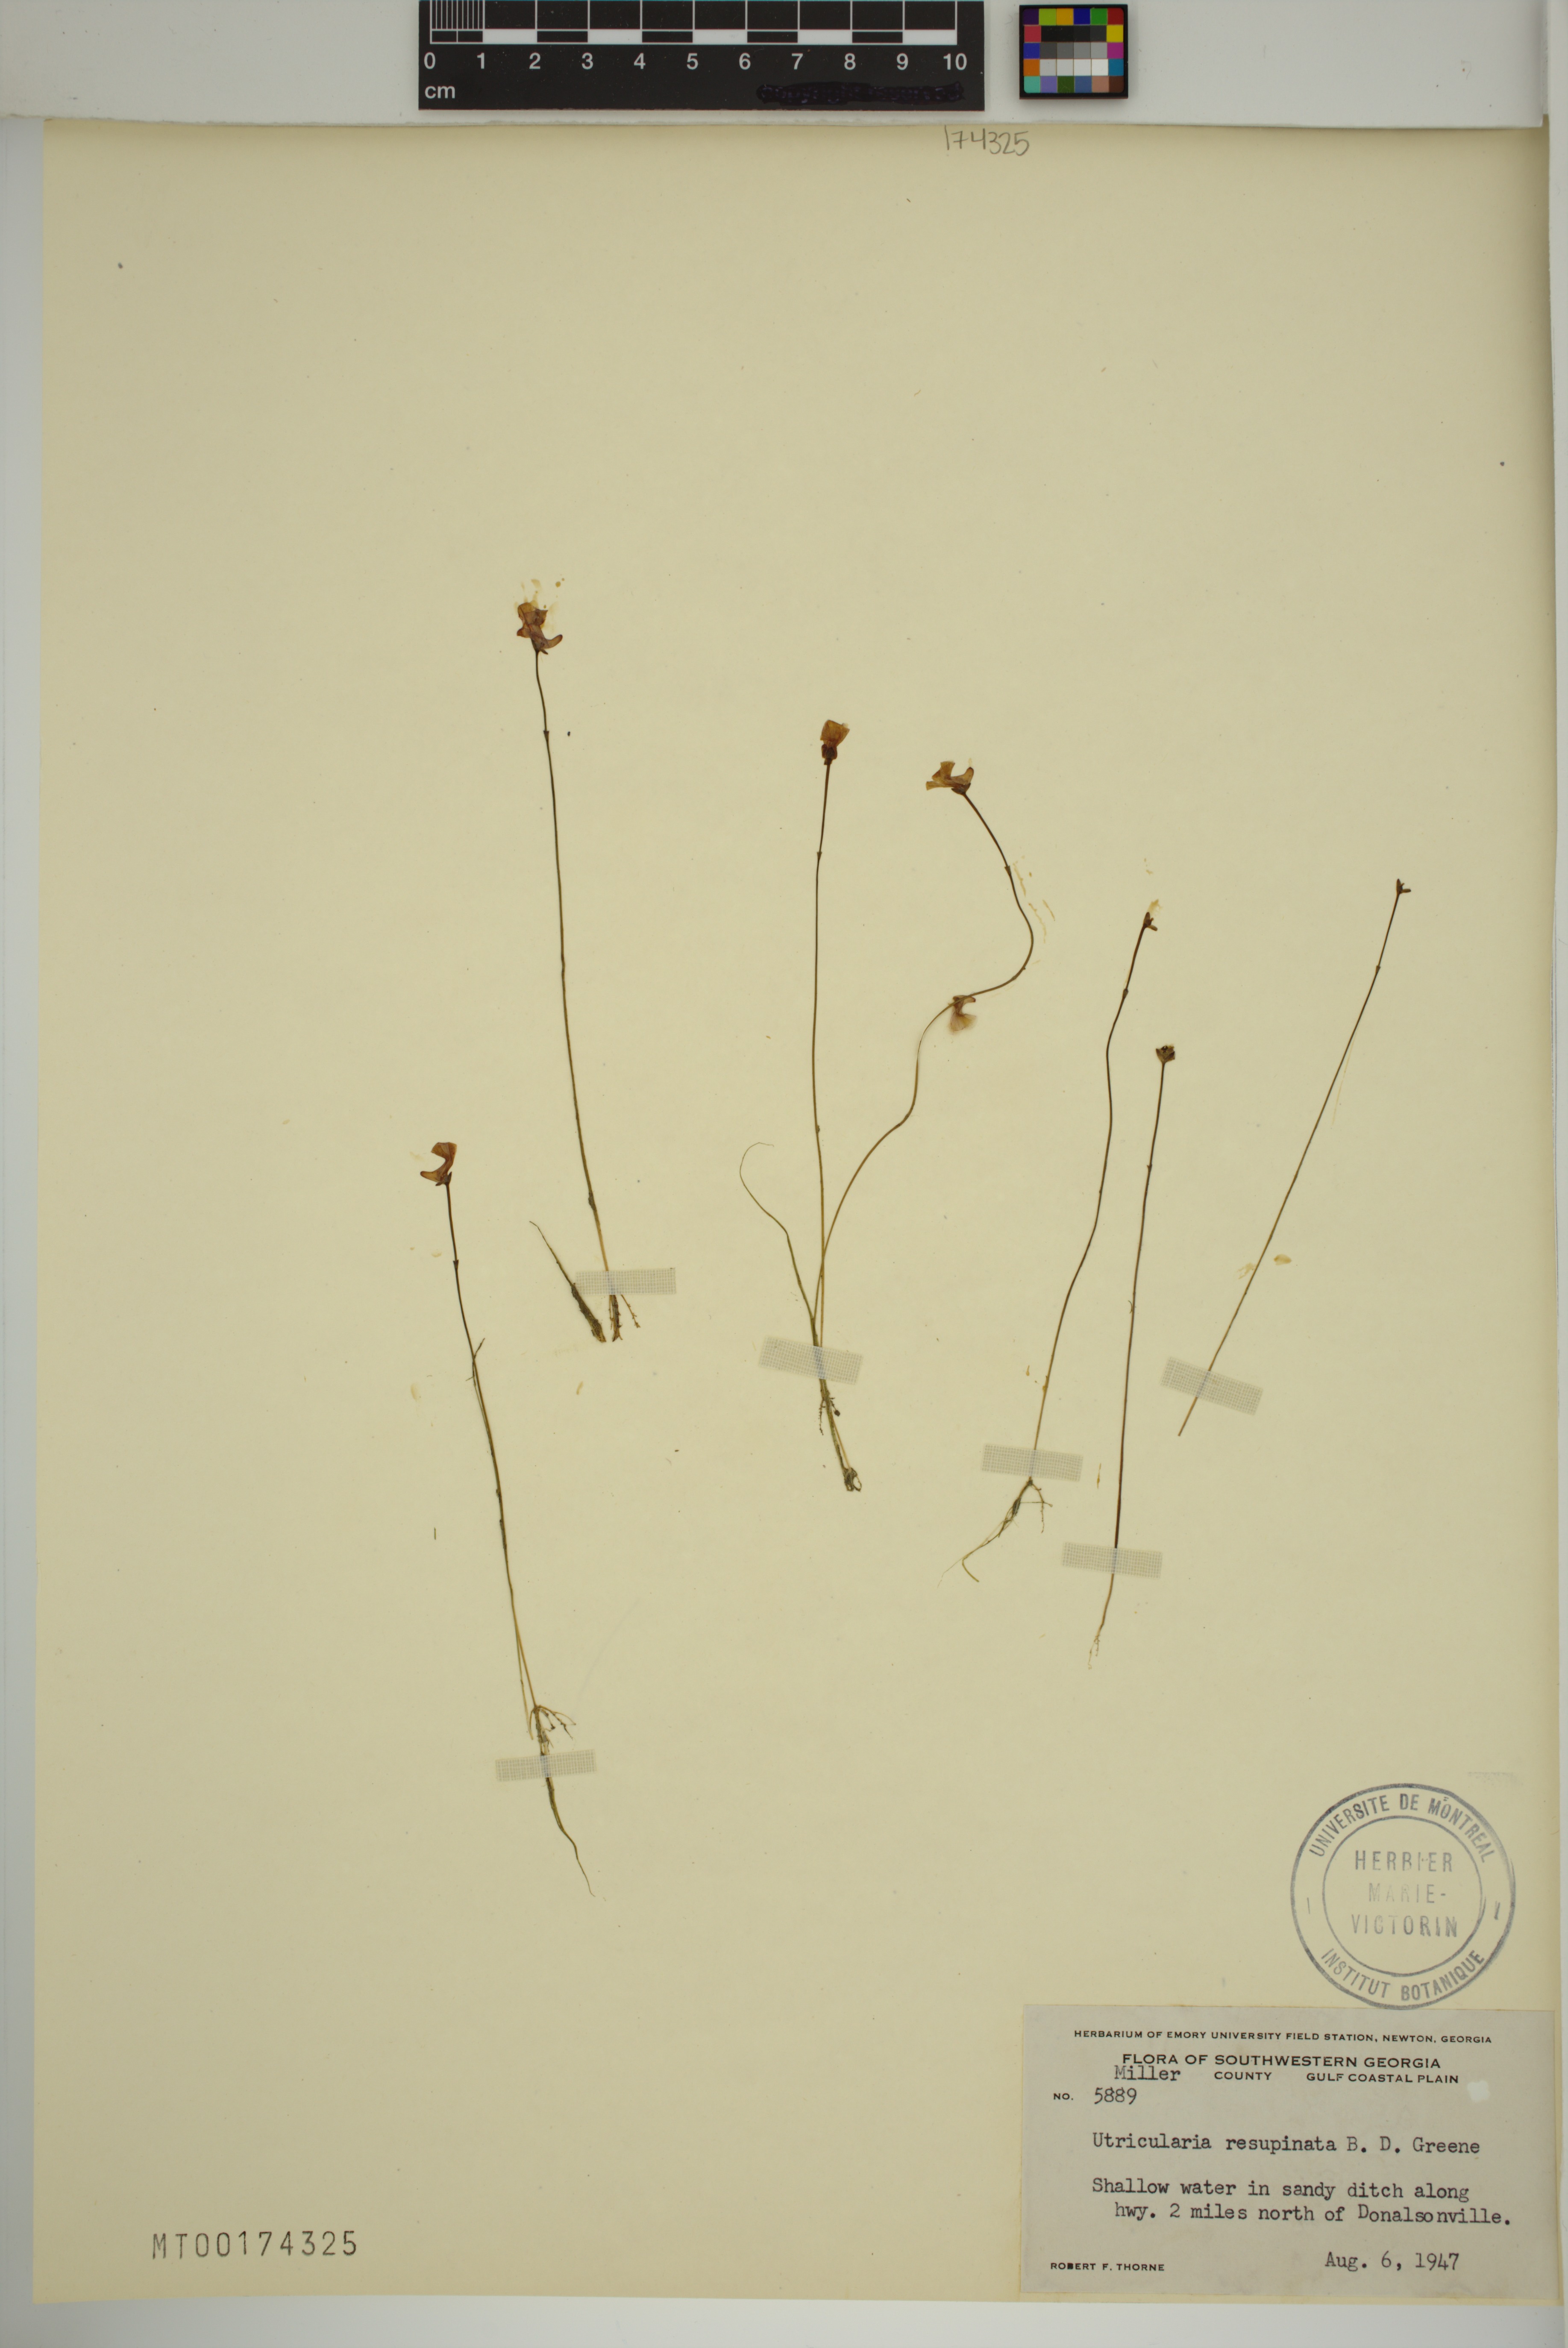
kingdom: Plantae
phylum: Tracheophyta
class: Magnoliopsida
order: Lamiales
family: Lentibulariaceae
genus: Utricularia
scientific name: Utricularia resupinata
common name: Northeastern bladderwort
